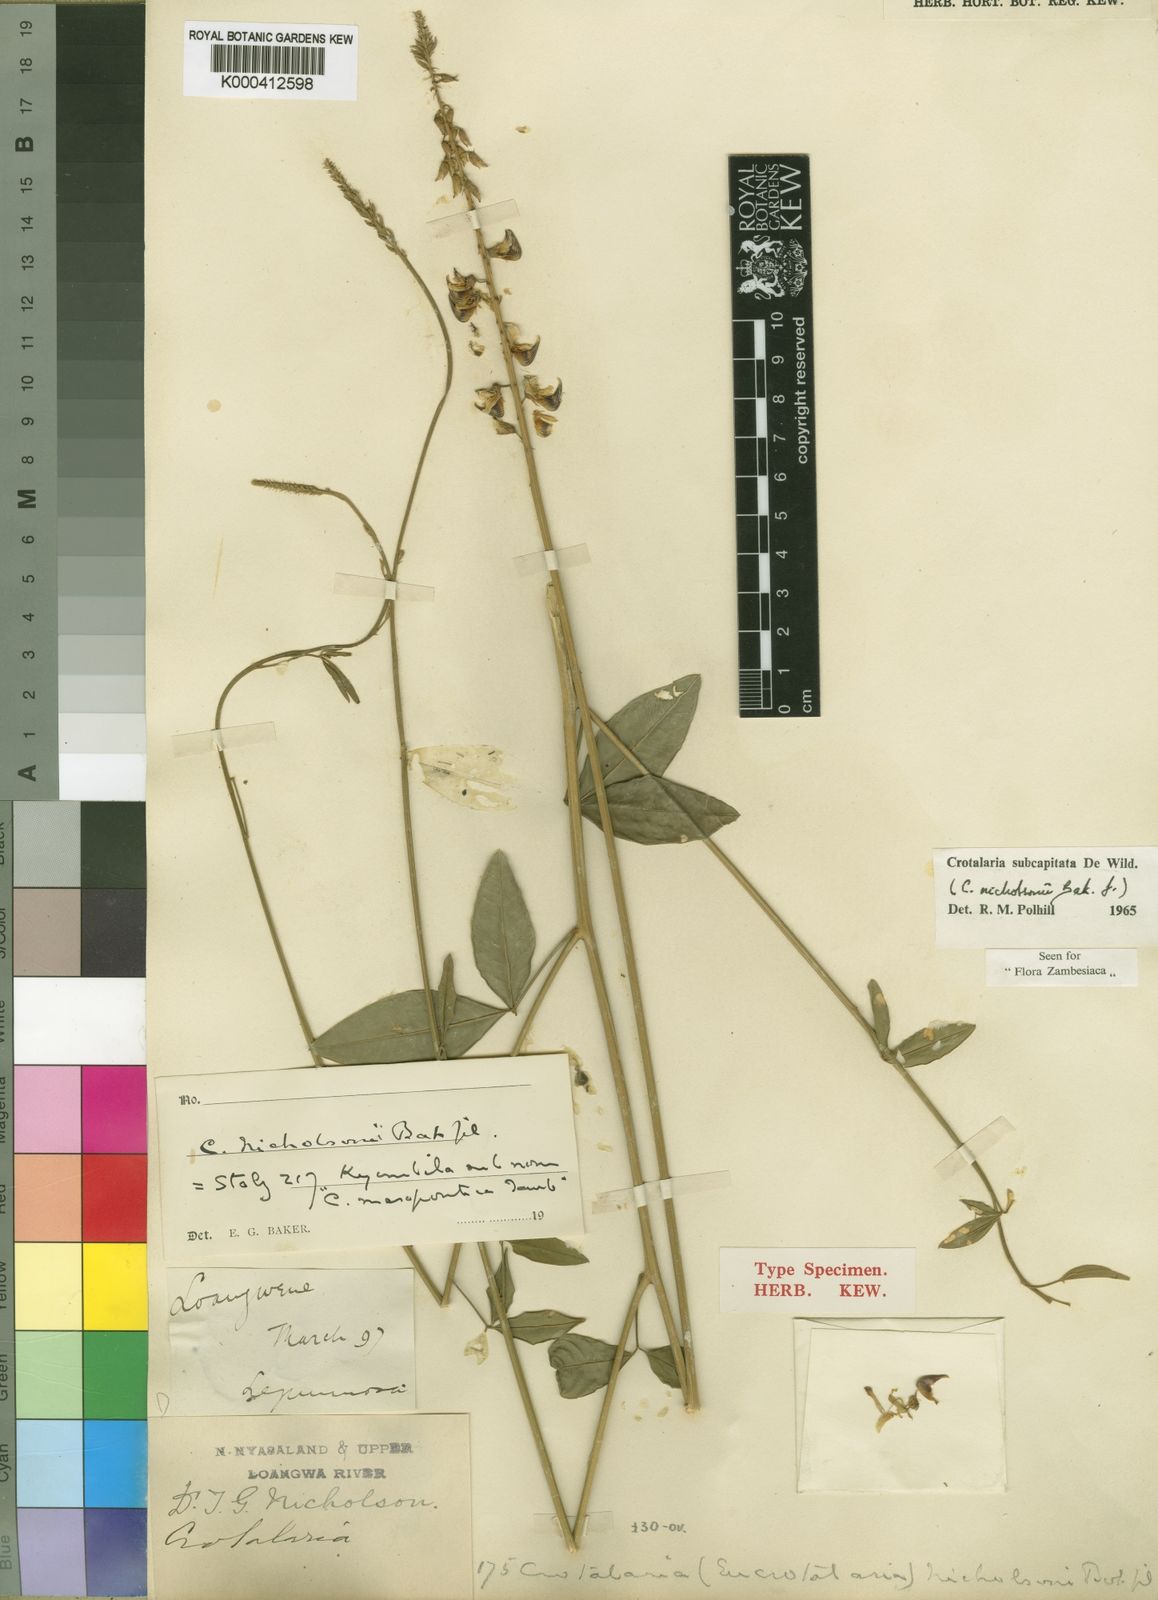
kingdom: Plantae
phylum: Tracheophyta
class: Magnoliopsida
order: Fabales
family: Fabaceae
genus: Crotalaria
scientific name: Crotalaria subcapitata
